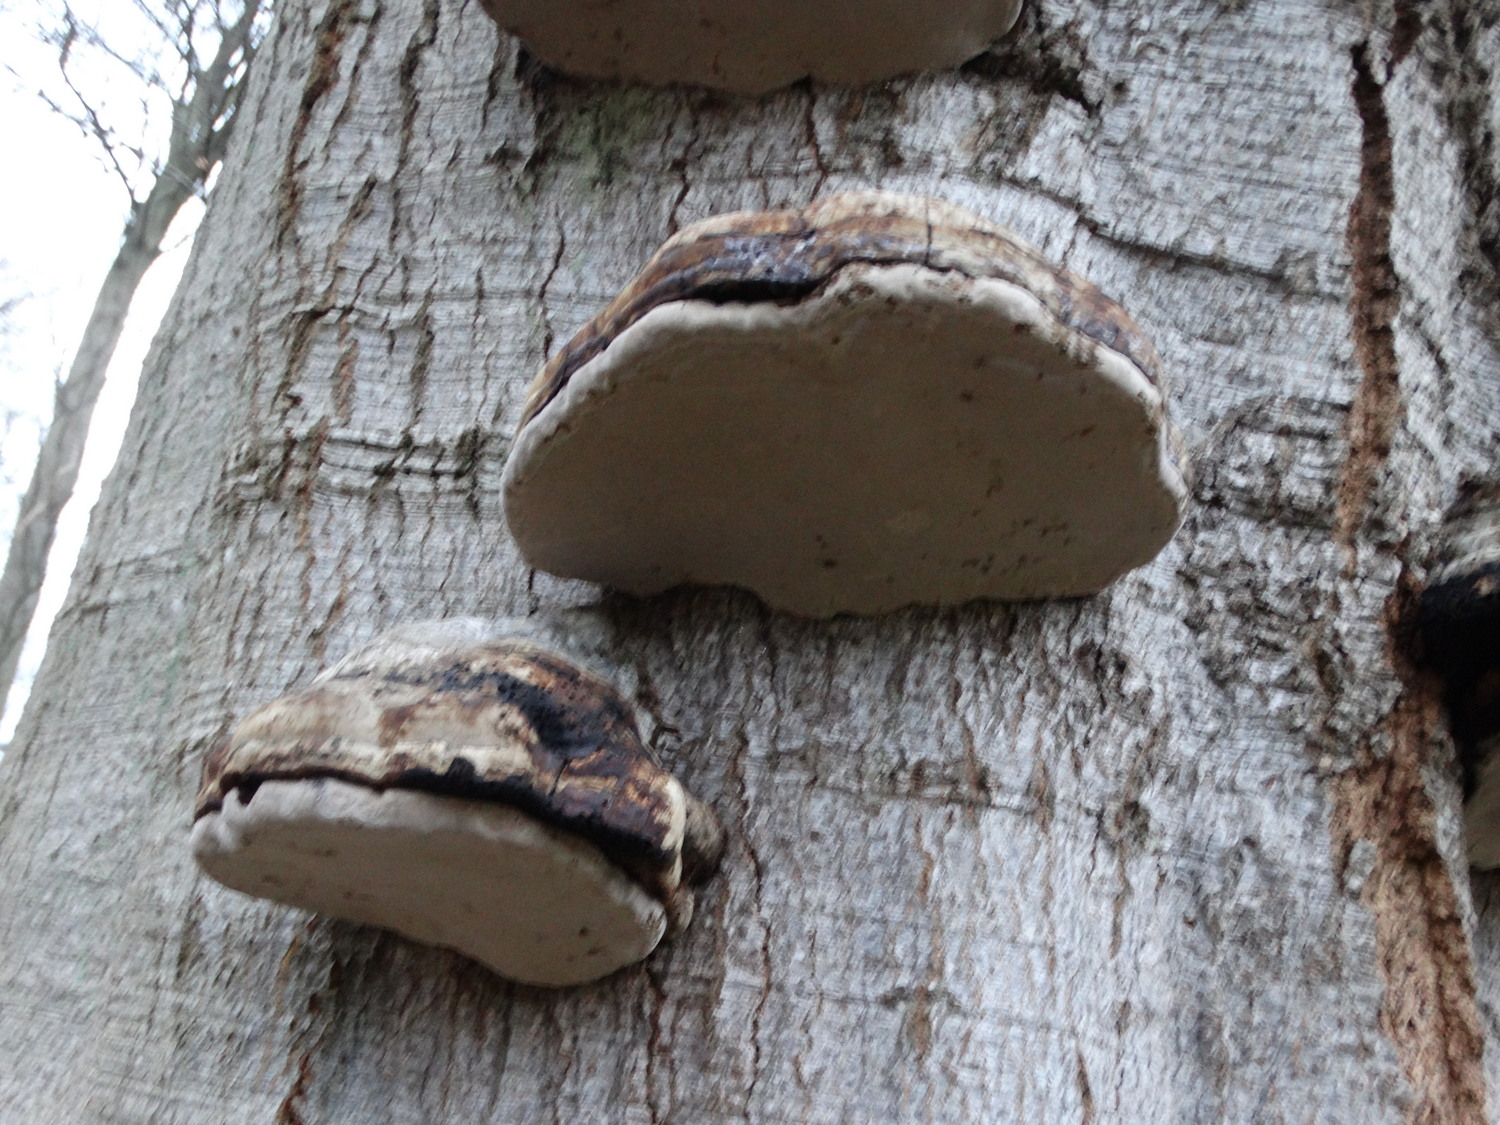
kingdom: Fungi
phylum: Basidiomycota
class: Agaricomycetes
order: Polyporales
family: Polyporaceae
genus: Fomes
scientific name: Fomes fomentarius
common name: tøndersvamp
